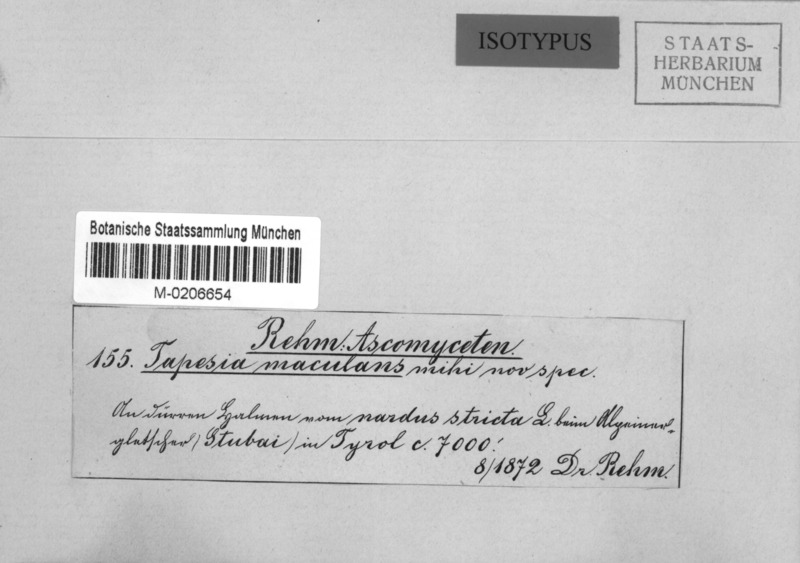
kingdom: Fungi
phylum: Ascomycota
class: Leotiomycetes
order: Helotiales
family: Ploettnerulaceae
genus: Pyrenopeziza
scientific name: Pyrenopeziza maculans
